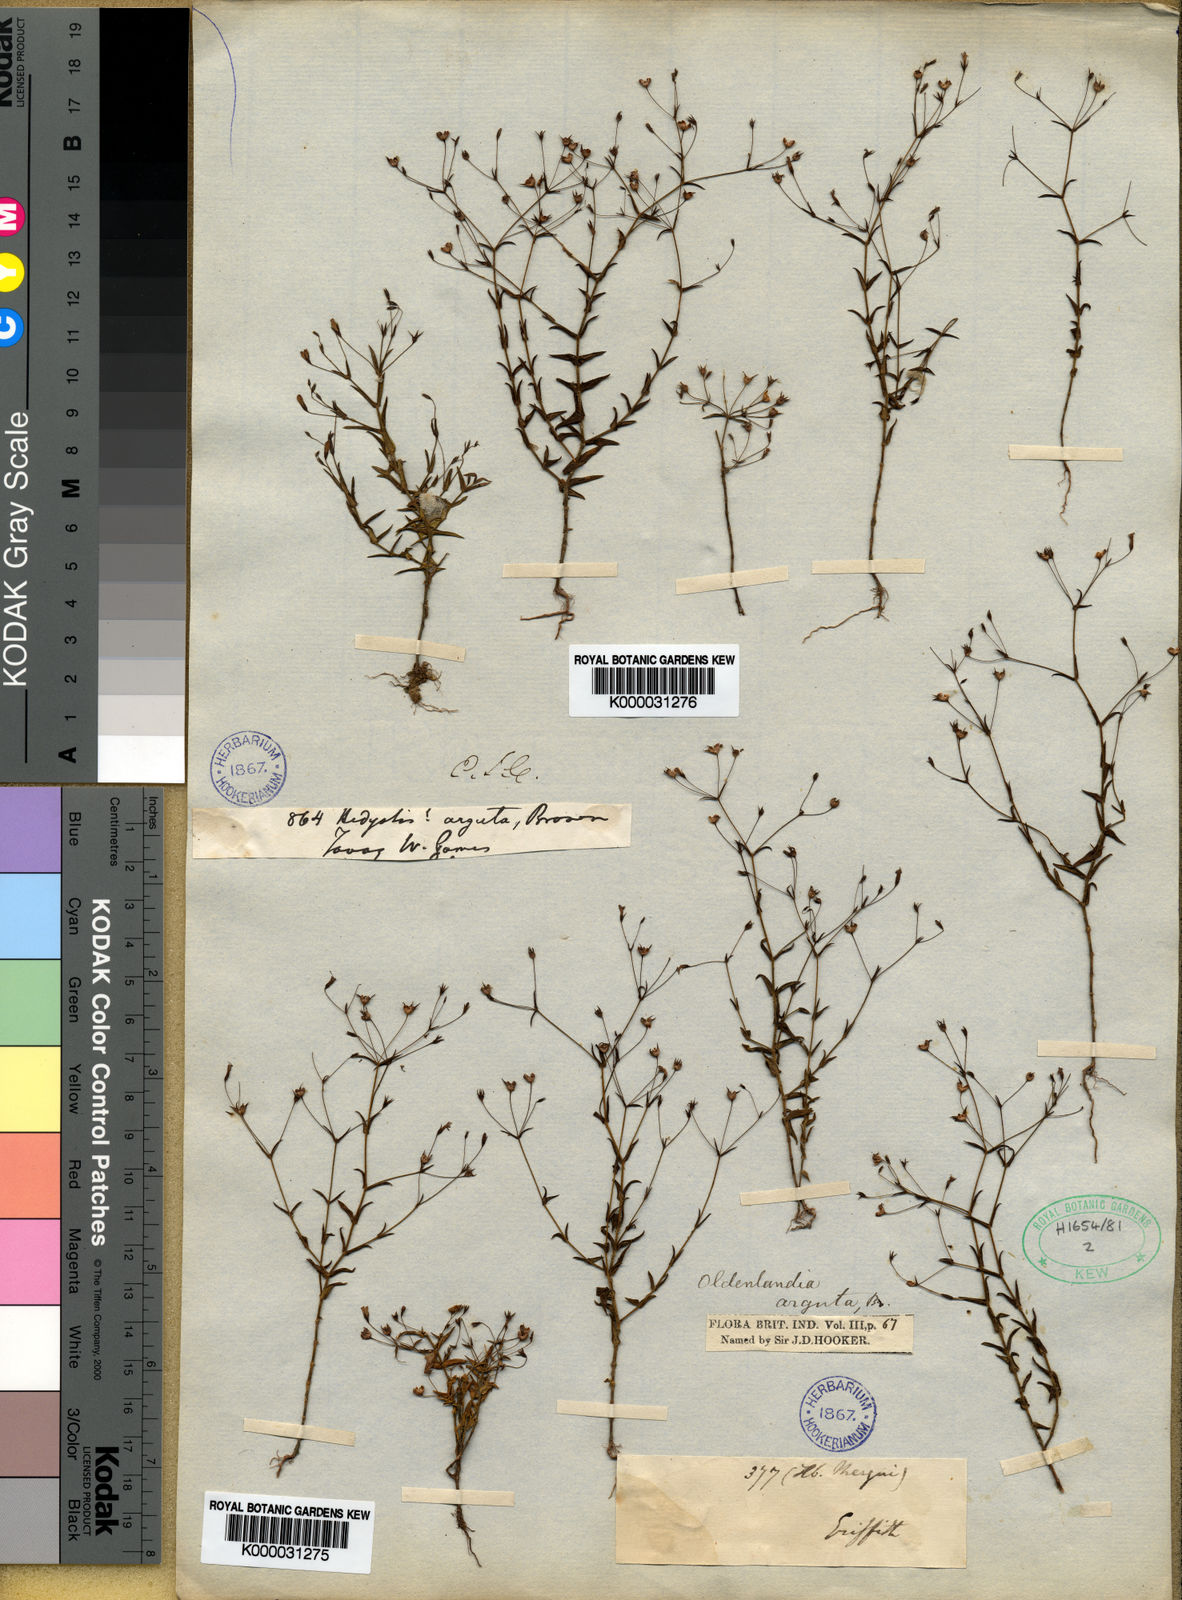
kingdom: Plantae
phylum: Tracheophyta
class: Magnoliopsida
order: Gentianales
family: Rubiaceae
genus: Scleromitrion
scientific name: Scleromitrion linoides
